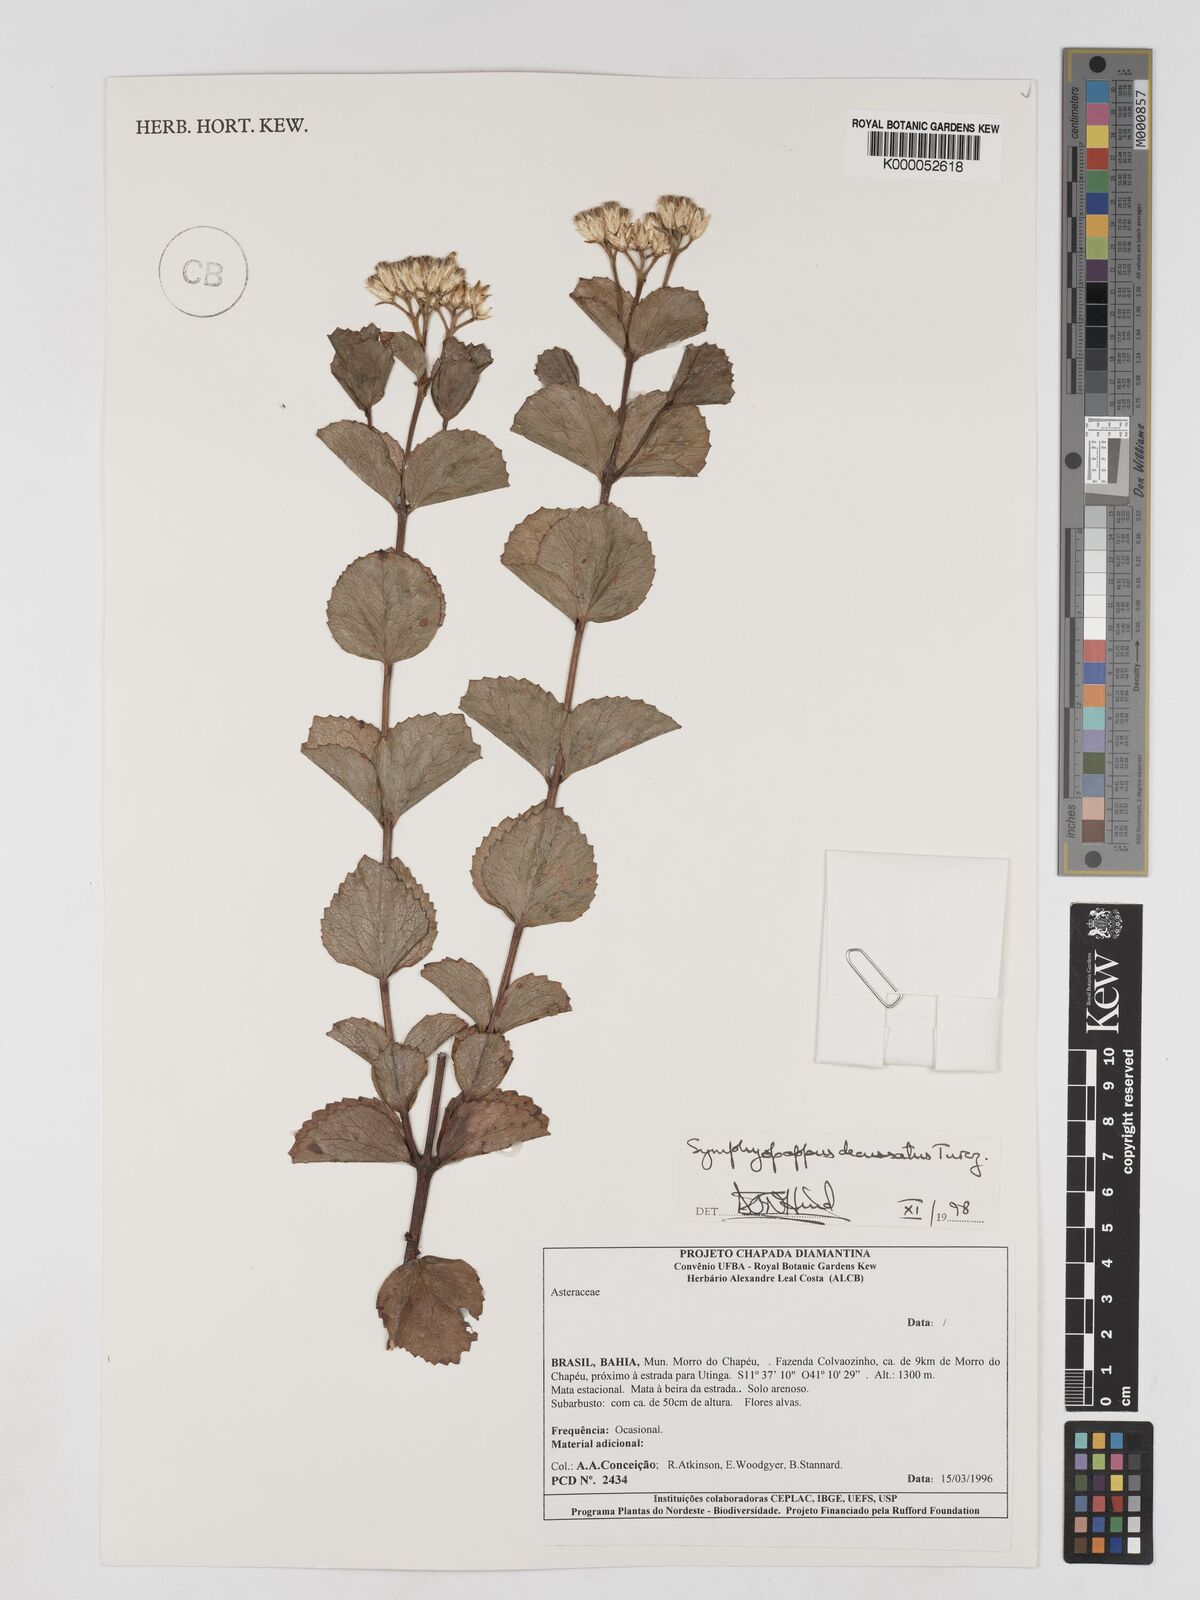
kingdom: Plantae
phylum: Tracheophyta
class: Magnoliopsida
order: Asterales
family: Asteraceae
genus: Symphyopappus
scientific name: Symphyopappus decussatus
